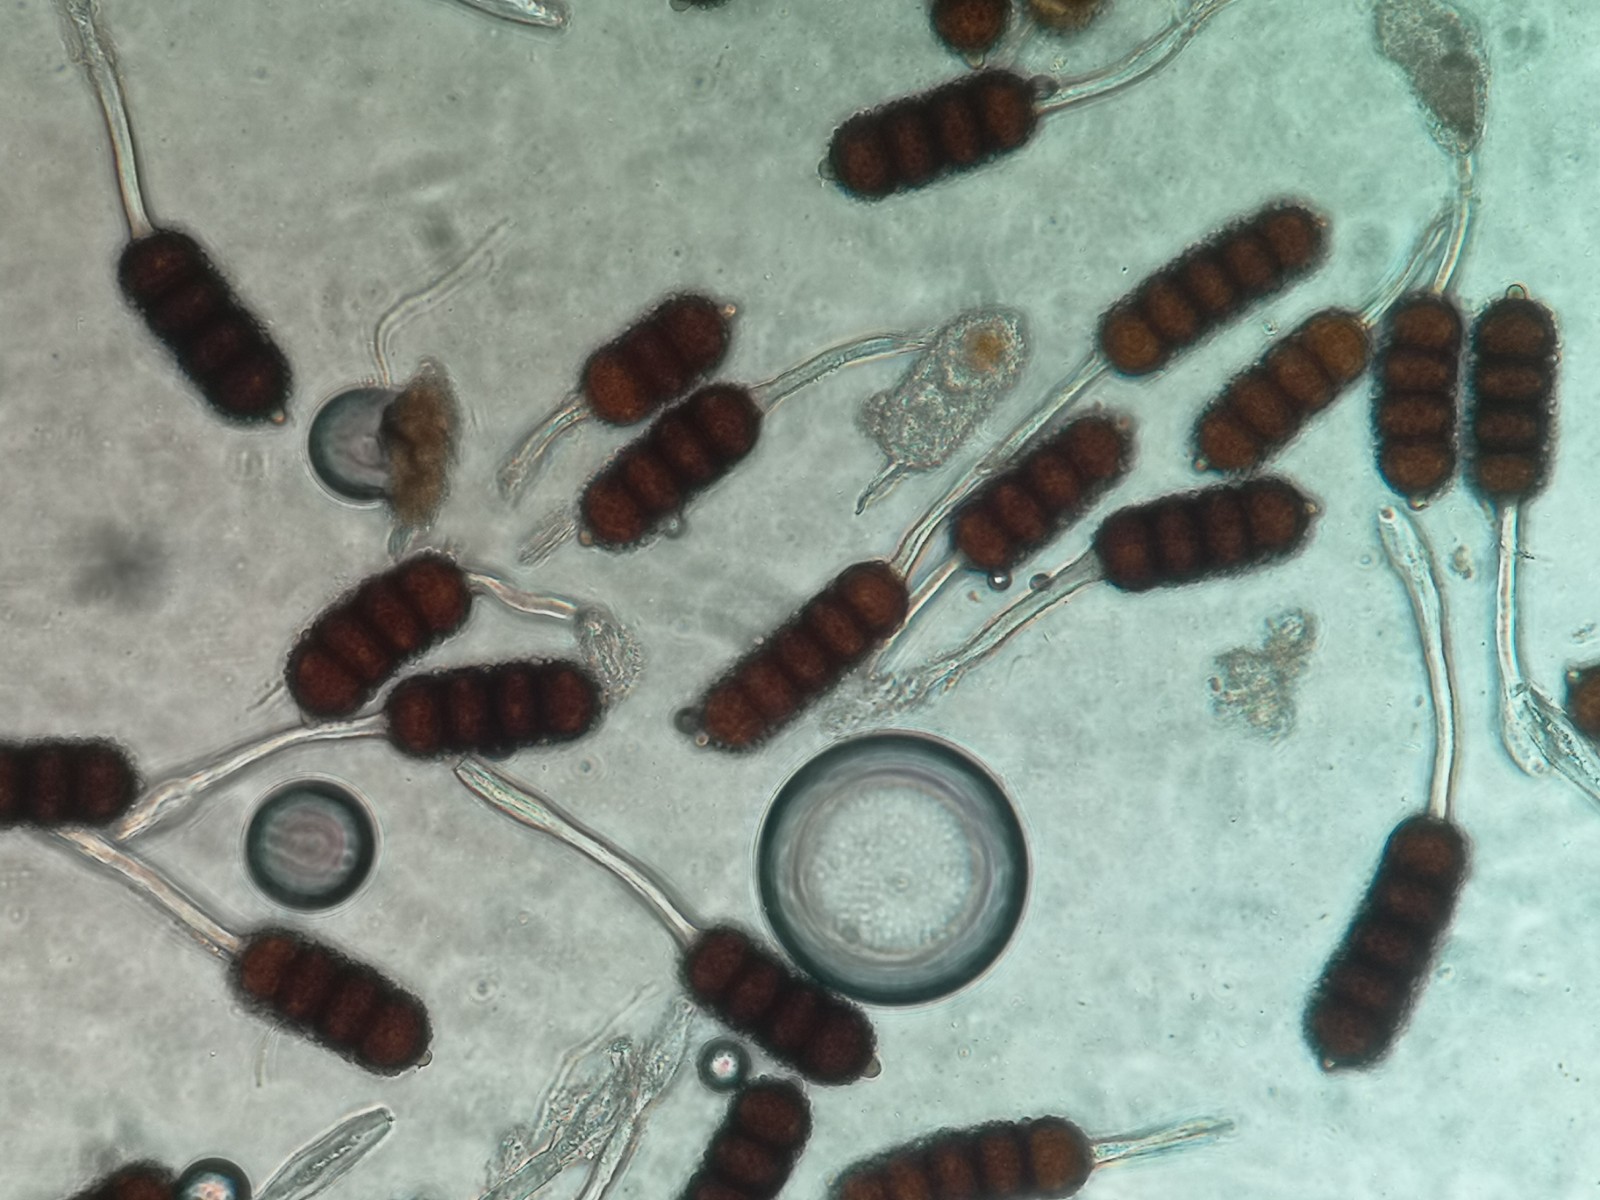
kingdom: Fungi
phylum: Basidiomycota
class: Pucciniomycetes
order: Pucciniales
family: Phragmidiaceae
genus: Phragmidium
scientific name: Phragmidium violaceum
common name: violet flercellerust
